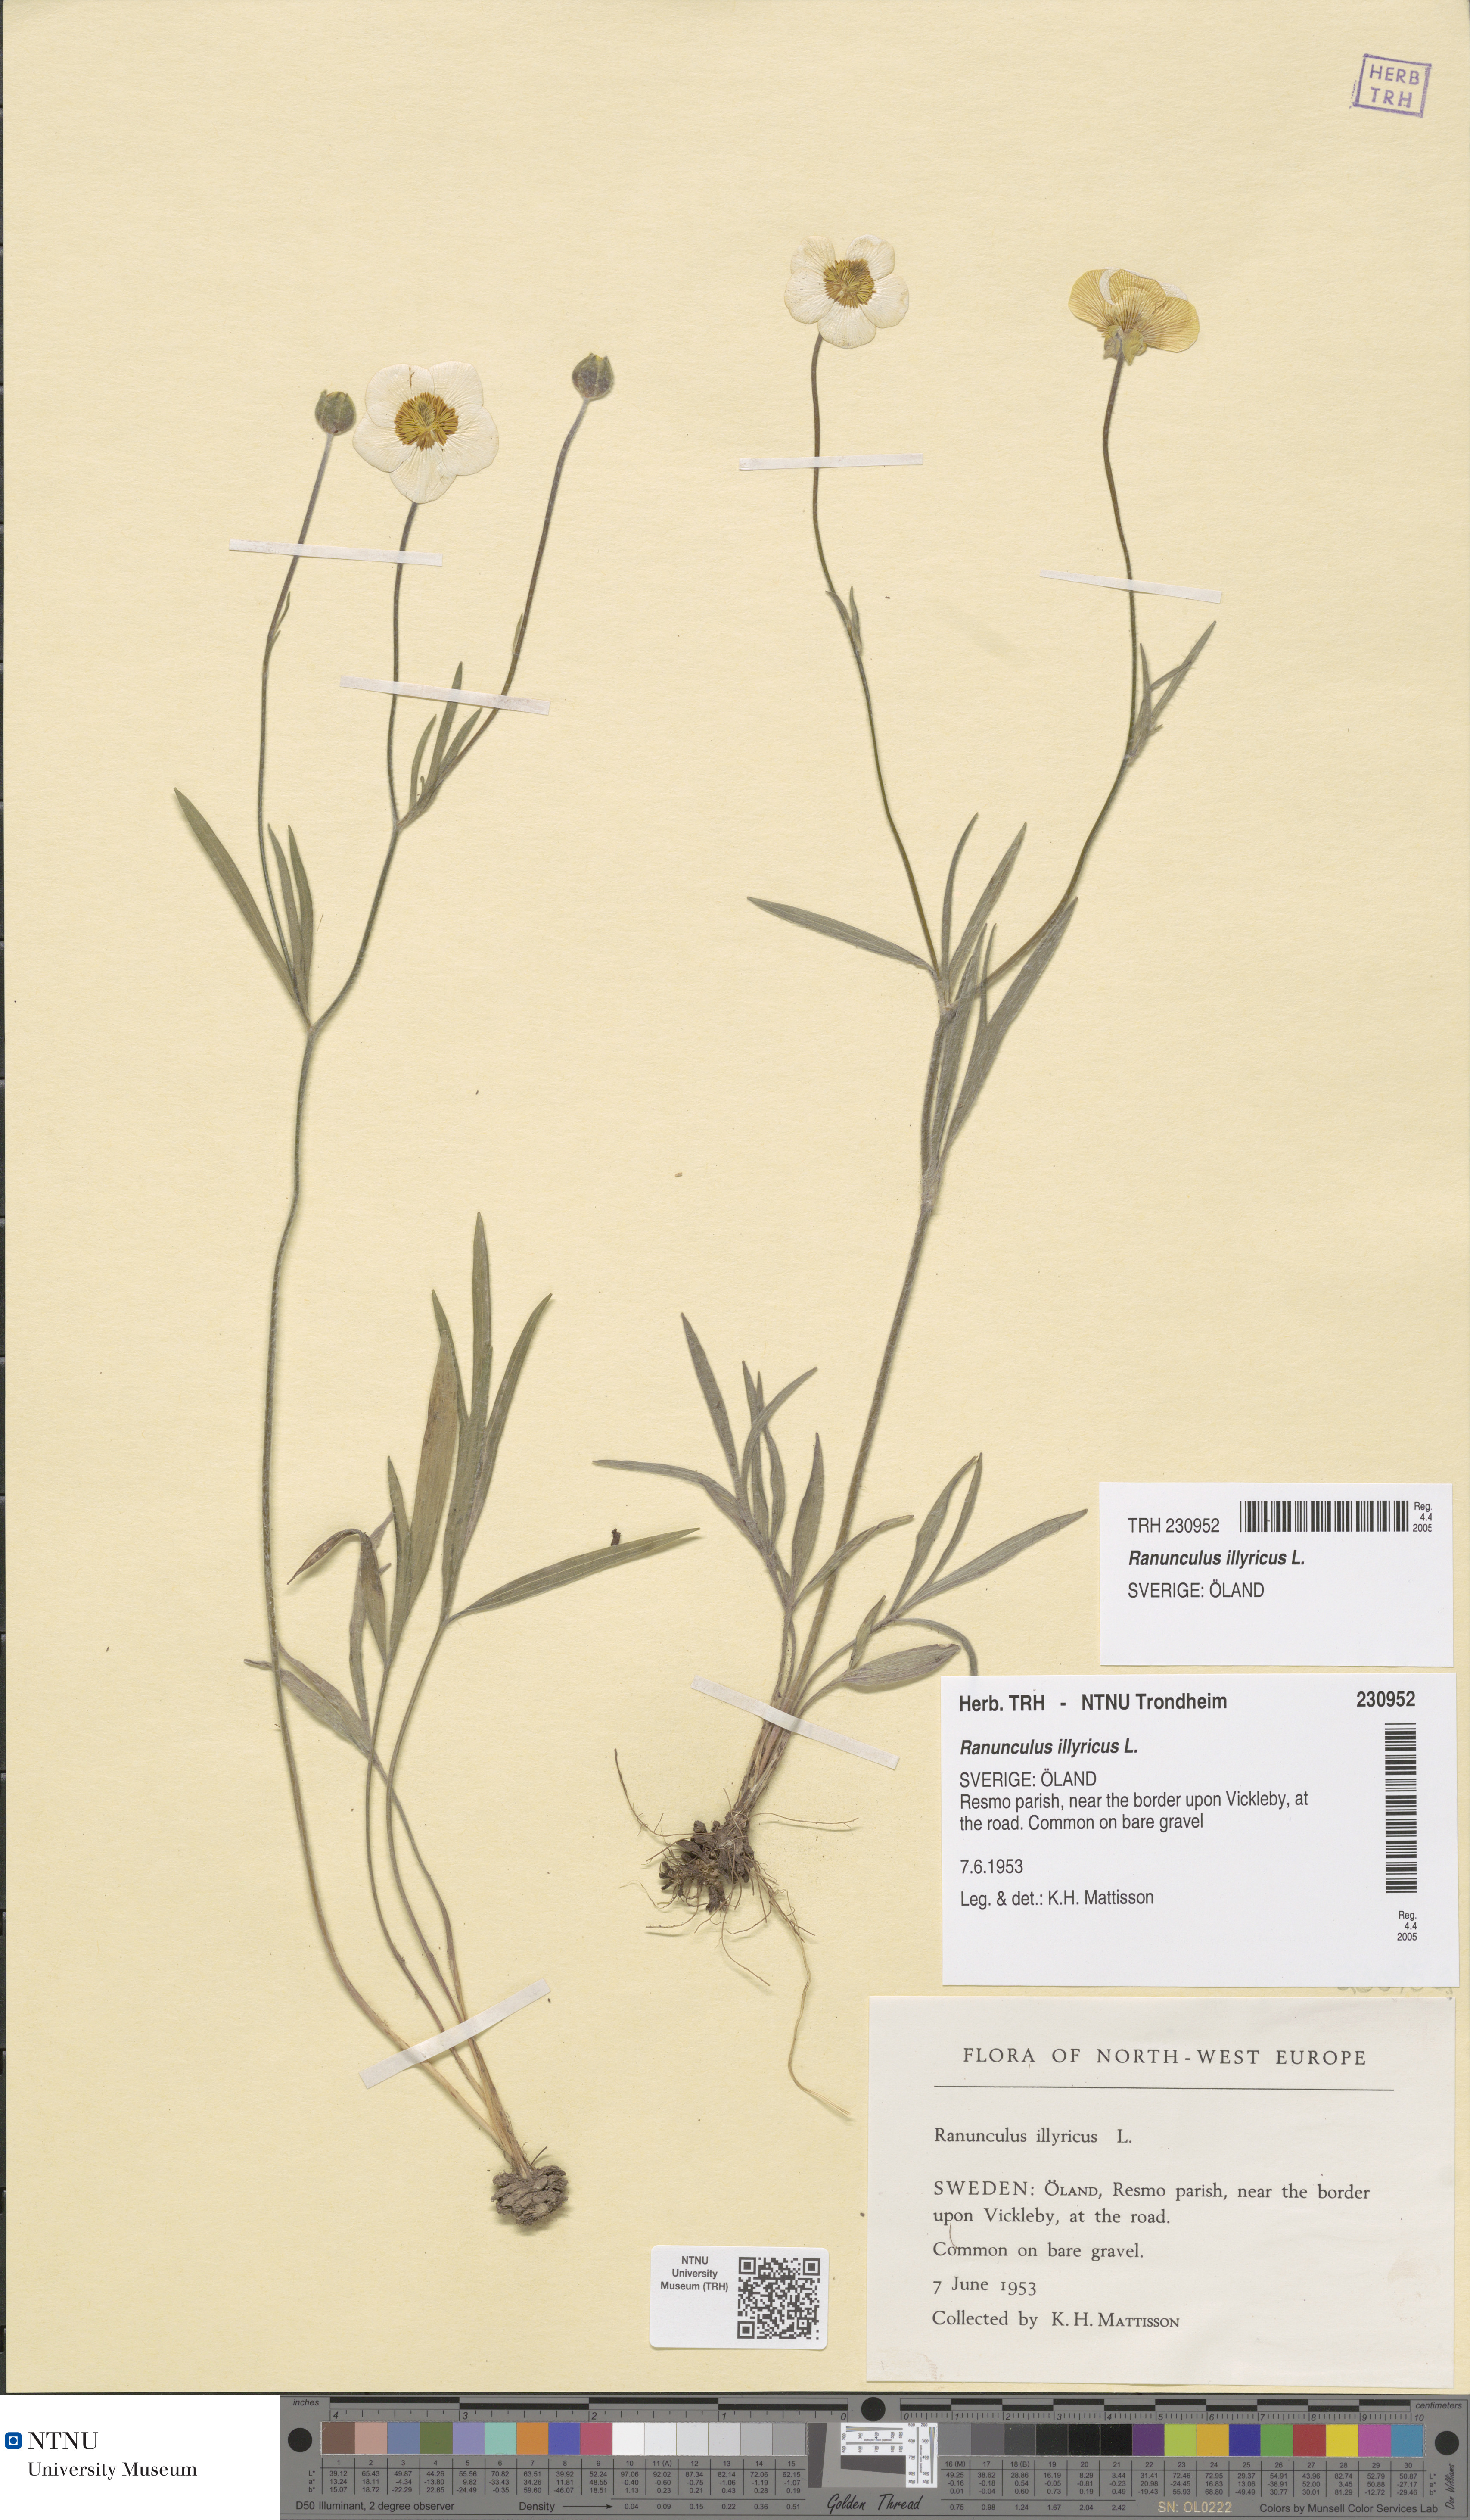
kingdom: Plantae
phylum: Tracheophyta
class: Magnoliopsida
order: Ranunculales
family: Ranunculaceae
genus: Ranunculus
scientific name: Ranunculus illyricus
